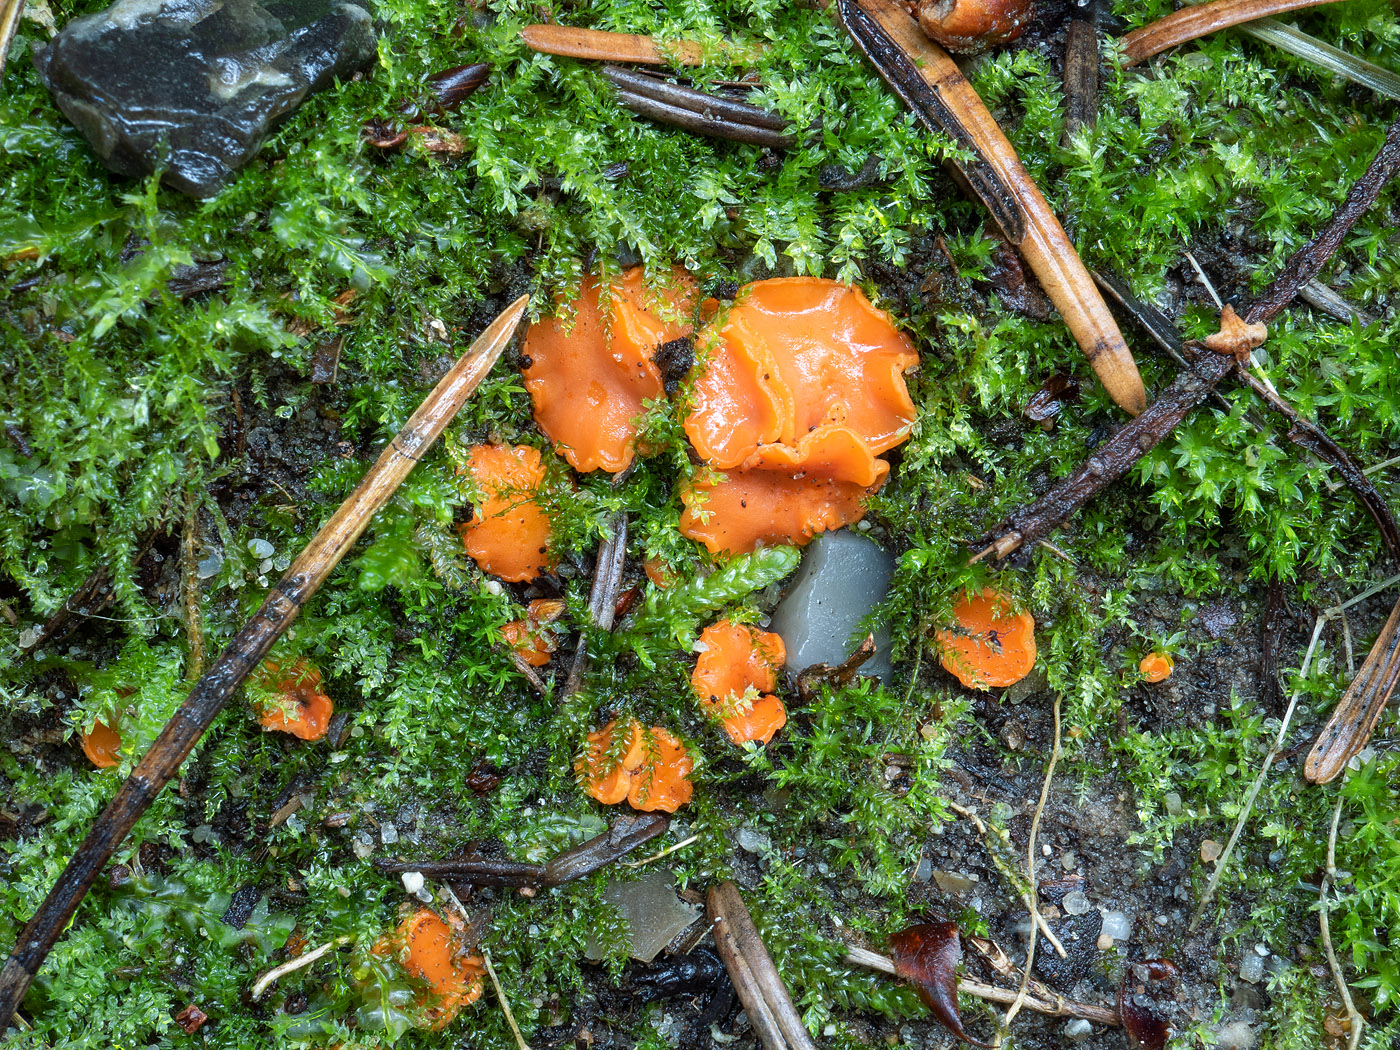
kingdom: Fungi
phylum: Ascomycota
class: Pezizomycetes
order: Pezizales
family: Pulvinulaceae
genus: Pulvinula
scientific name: Pulvinula convexella
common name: stor pudebæger
